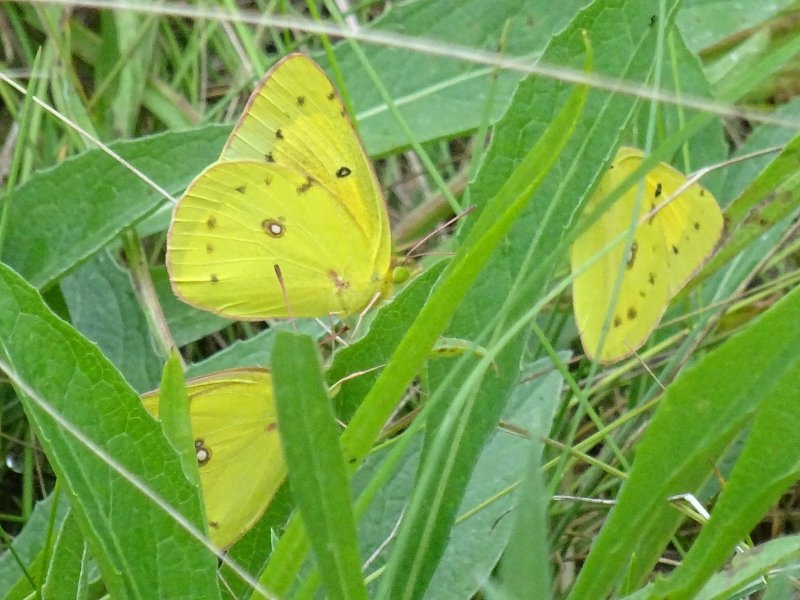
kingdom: Animalia
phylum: Arthropoda
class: Insecta
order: Lepidoptera
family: Pieridae
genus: Colias
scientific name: Colias philodice
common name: Clouded Sulphur
